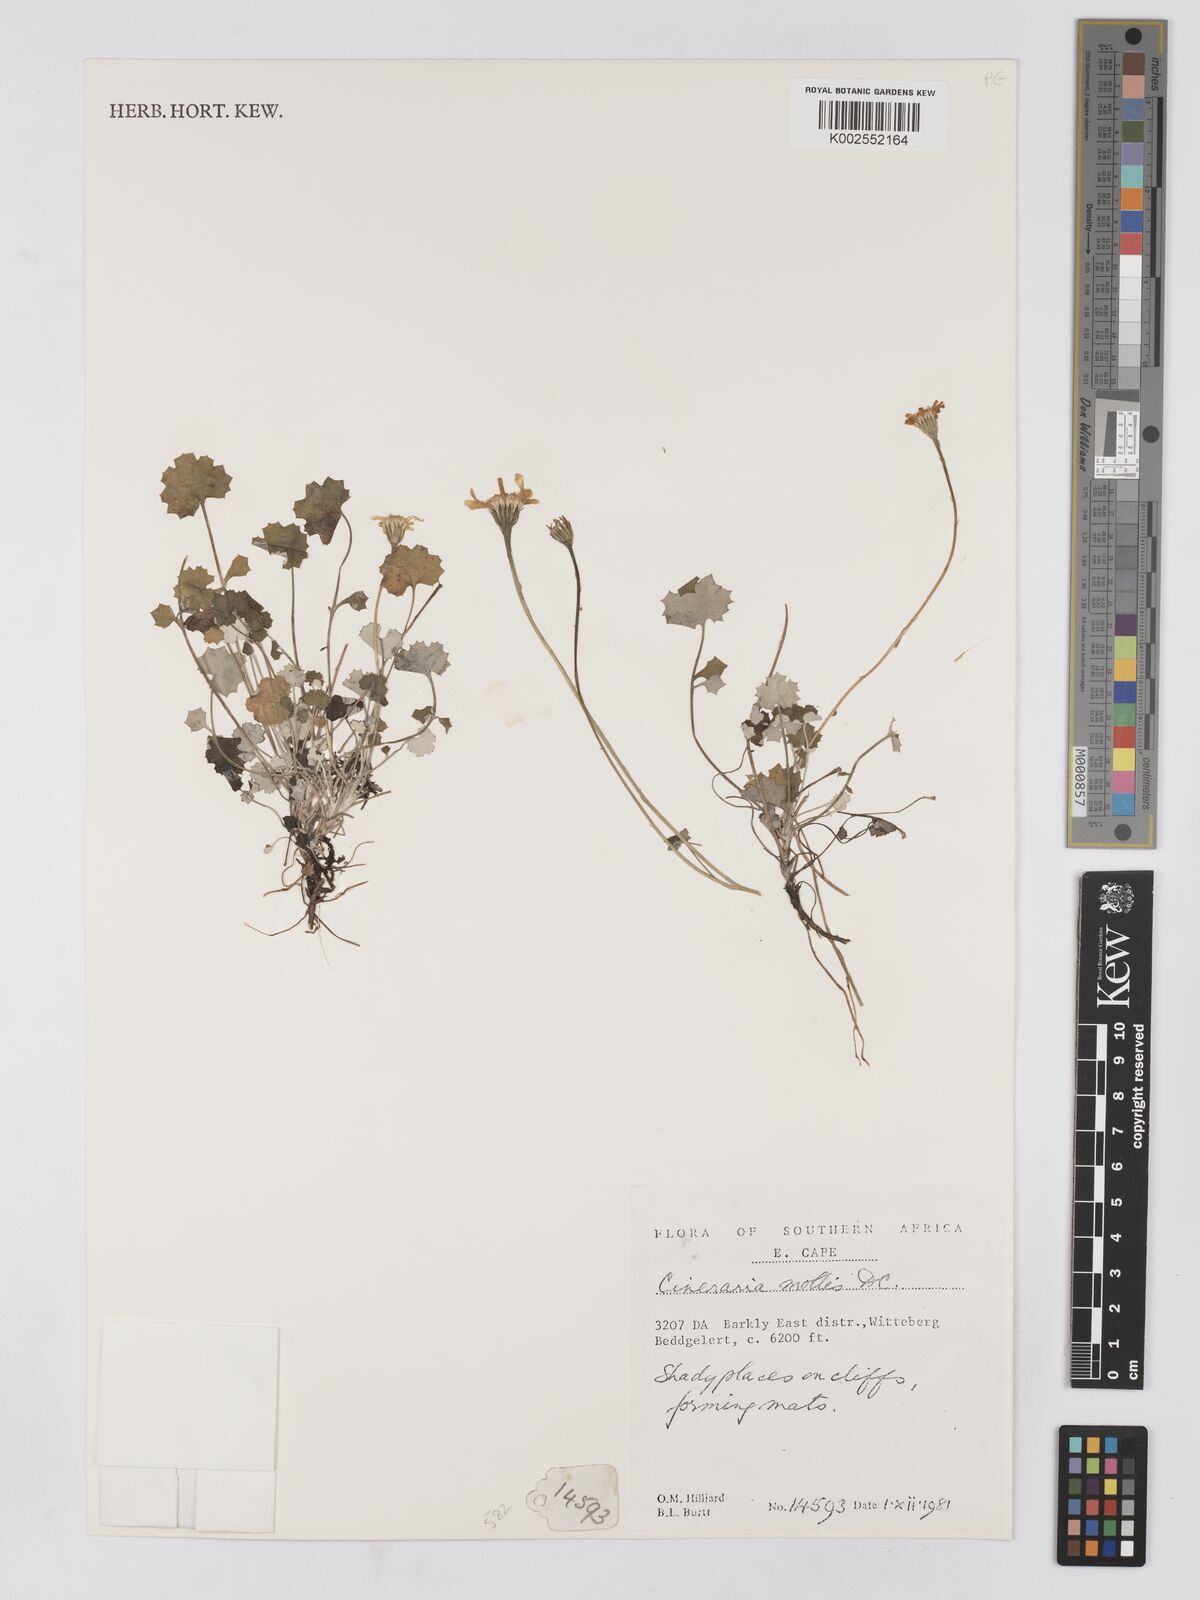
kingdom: Plantae
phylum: Tracheophyta
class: Magnoliopsida
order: Asterales
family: Asteraceae
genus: Cineraria
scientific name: Cineraria mollis
